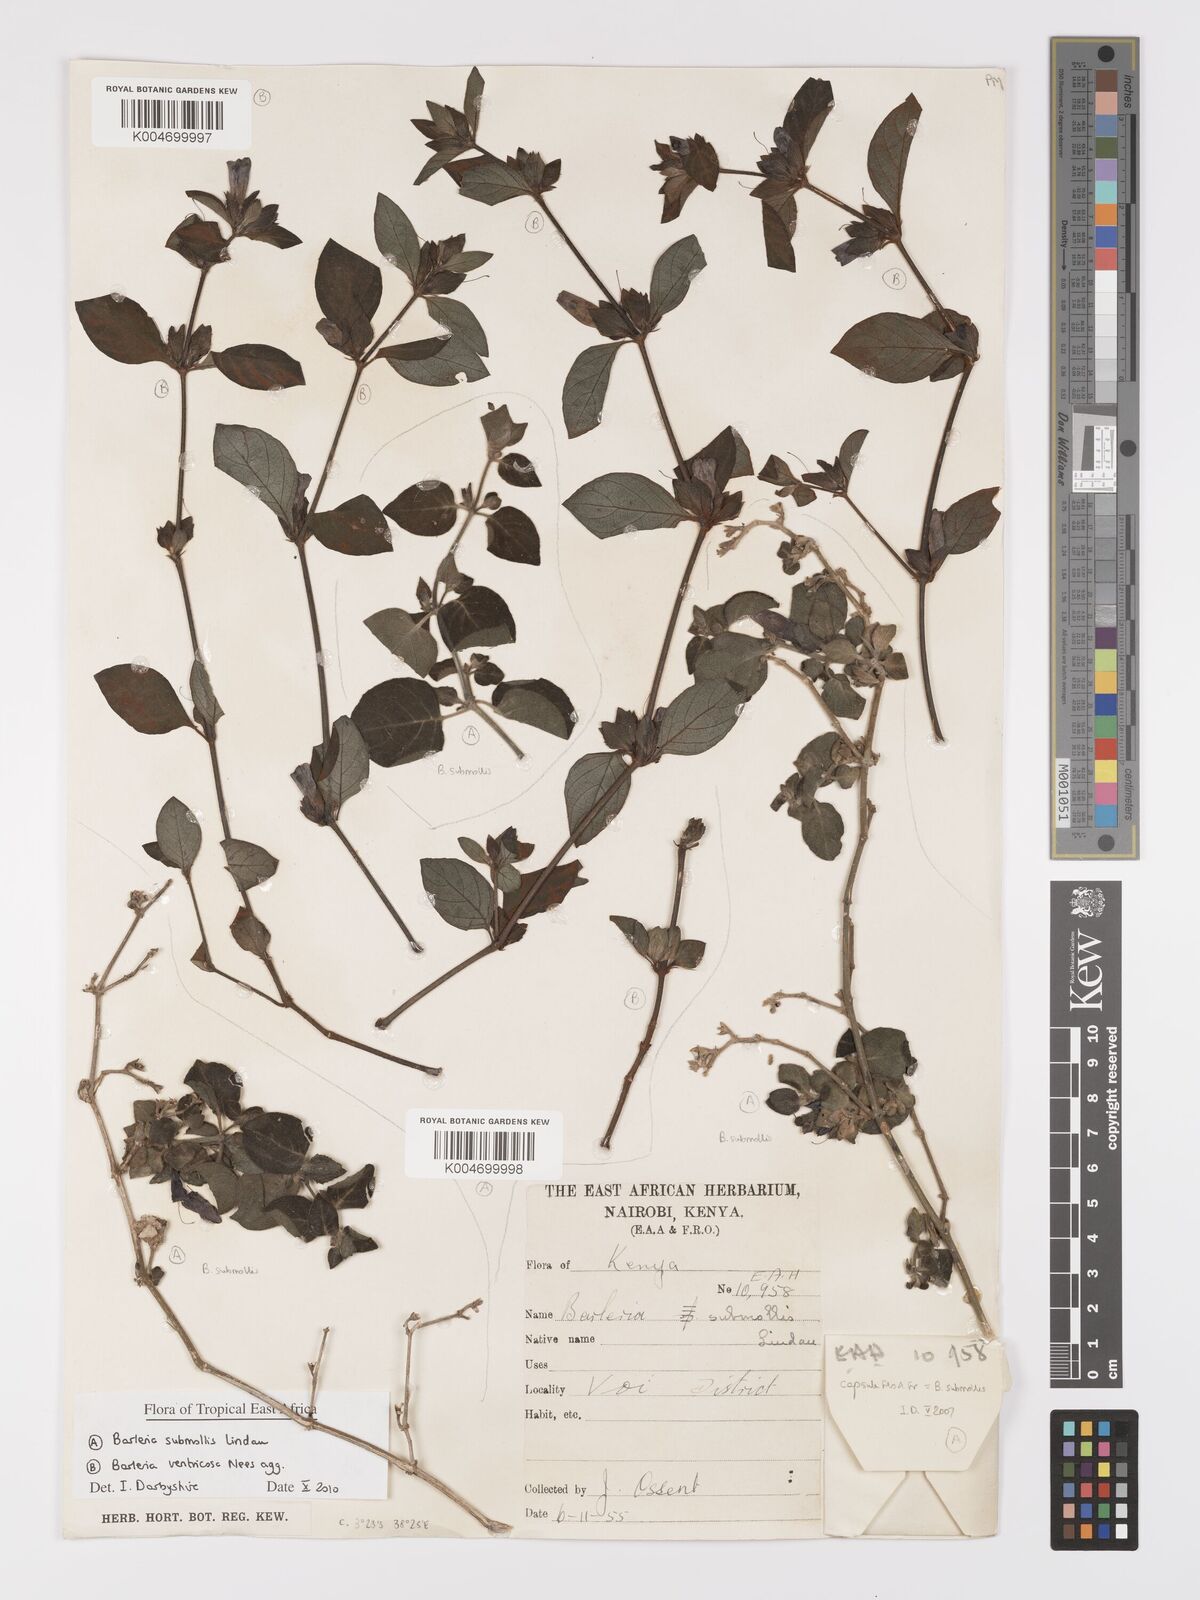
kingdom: Plantae
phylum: Tracheophyta
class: Magnoliopsida
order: Lamiales
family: Acanthaceae
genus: Barleria
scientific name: Barleria submollis
